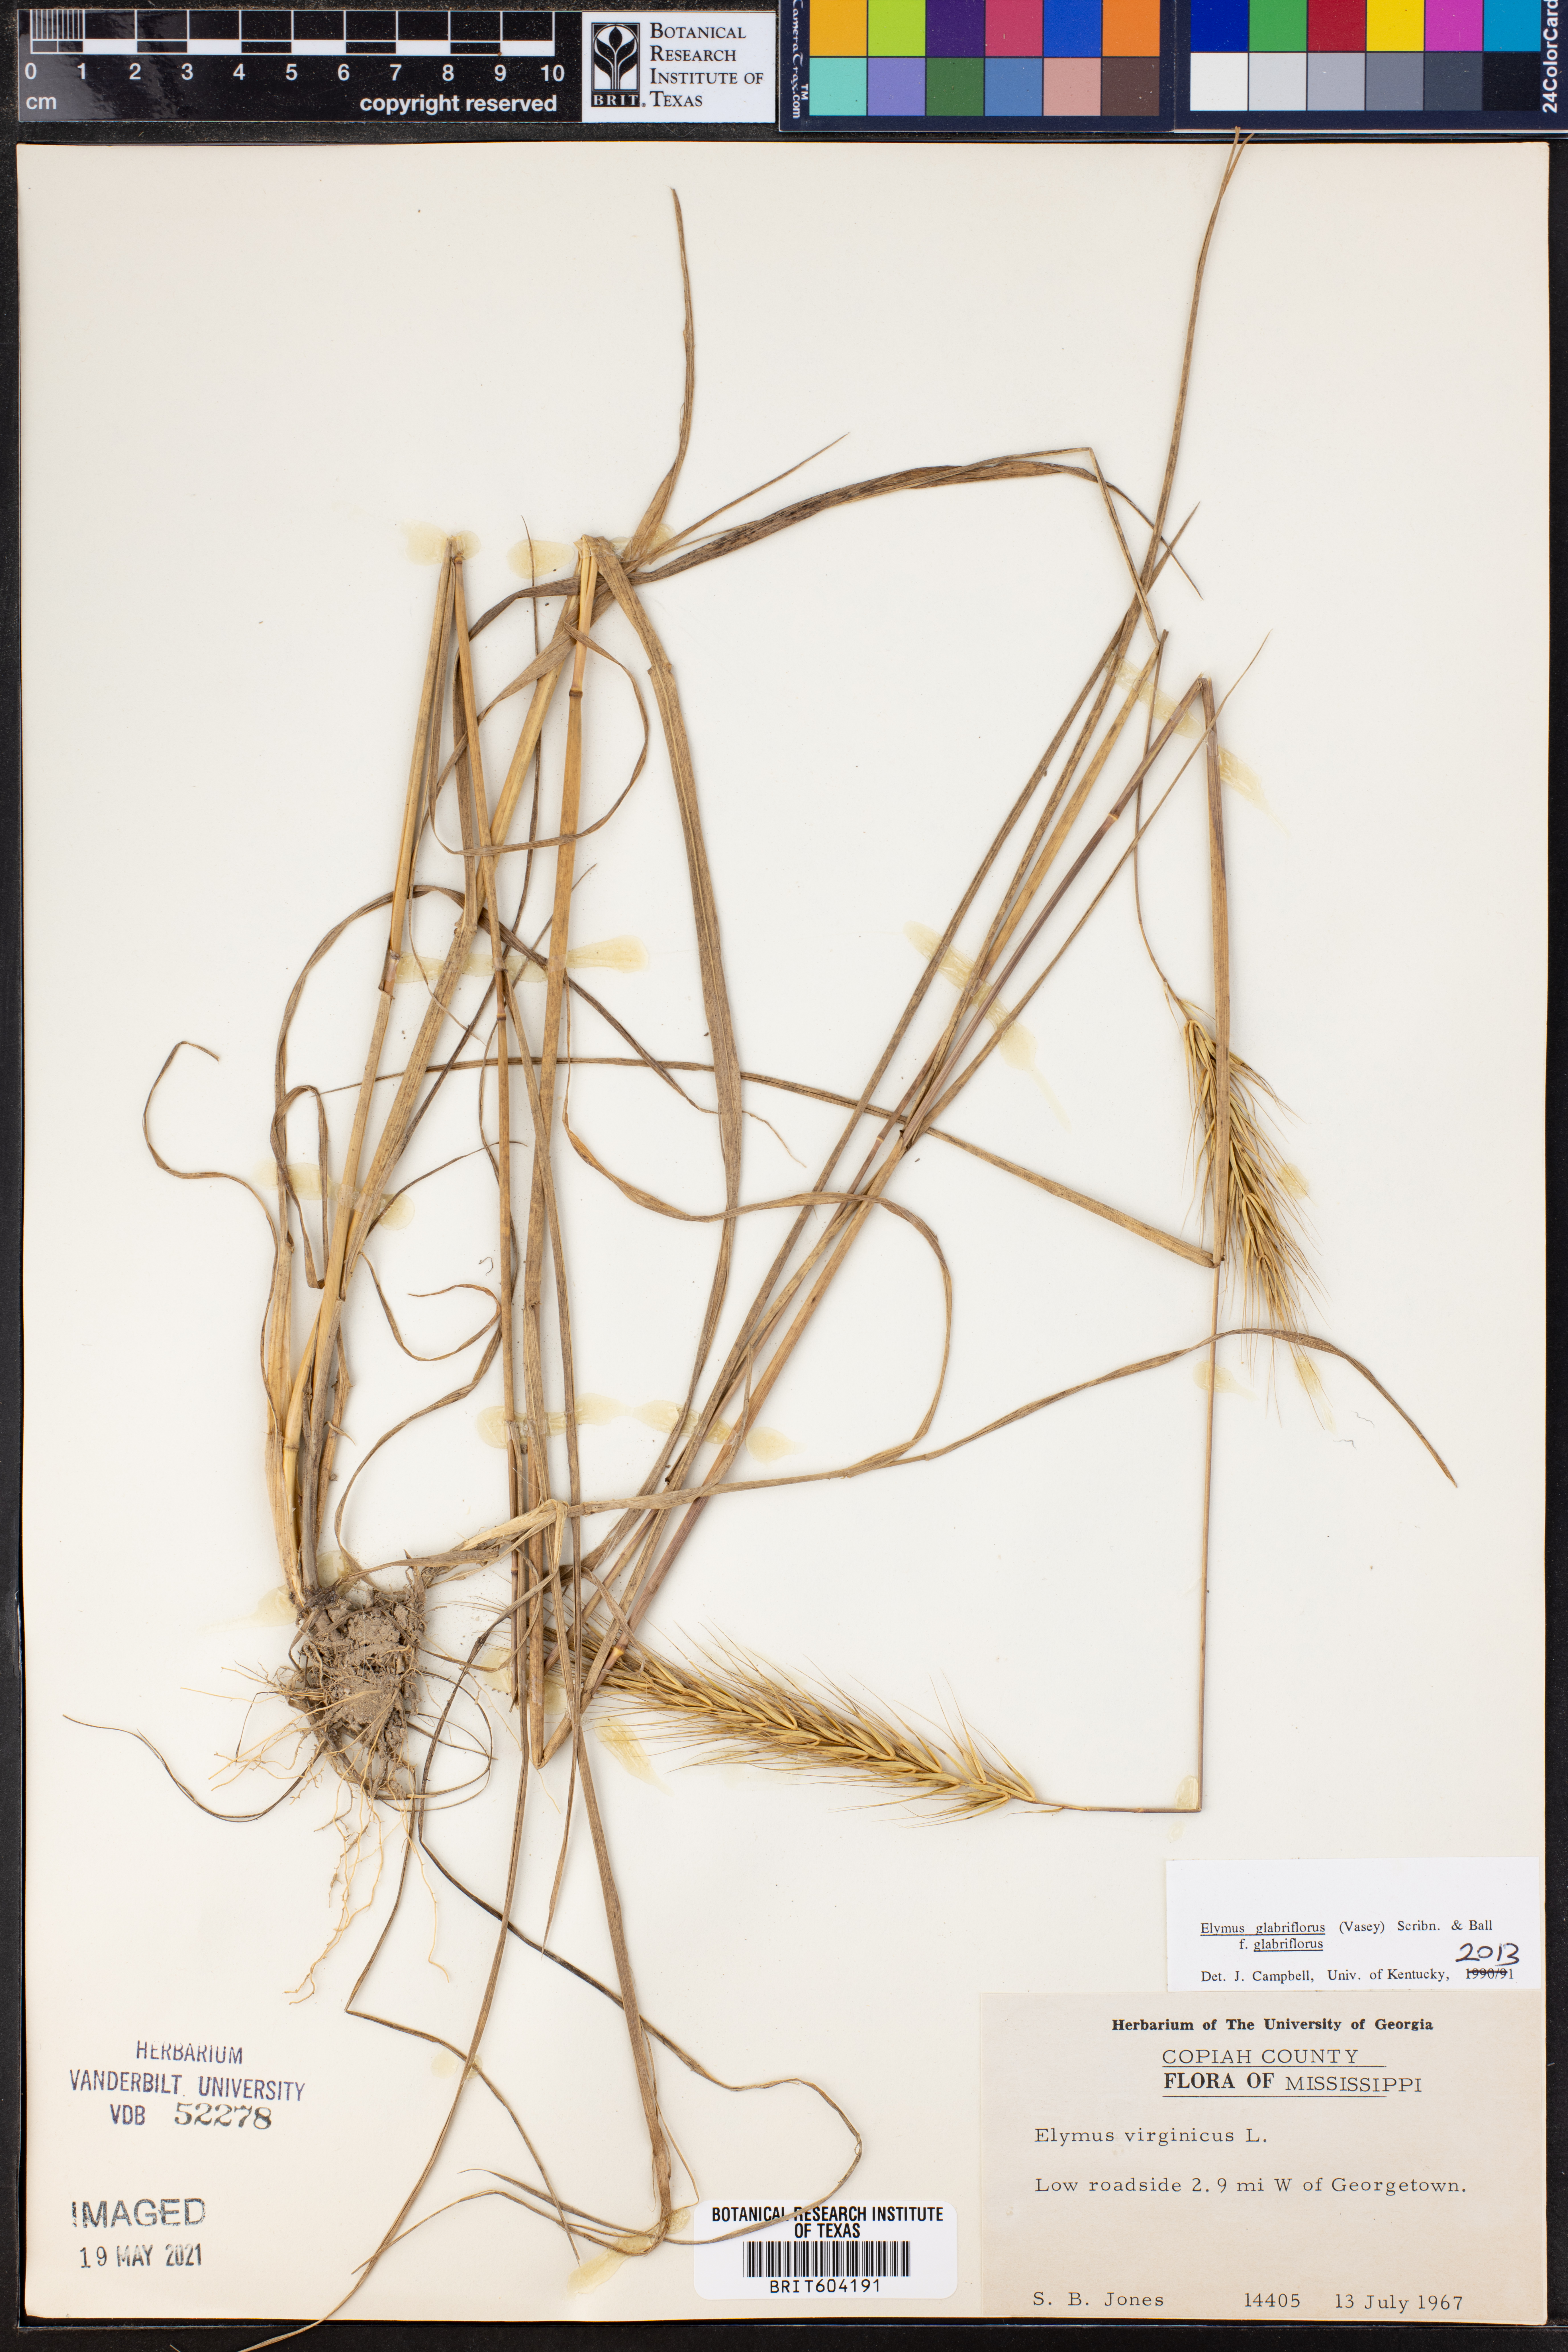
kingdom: Plantae
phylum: Tracheophyta
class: Liliopsida
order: Poales
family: Poaceae
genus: Elymus
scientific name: Elymus virginicus
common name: Common eastern wildrye
